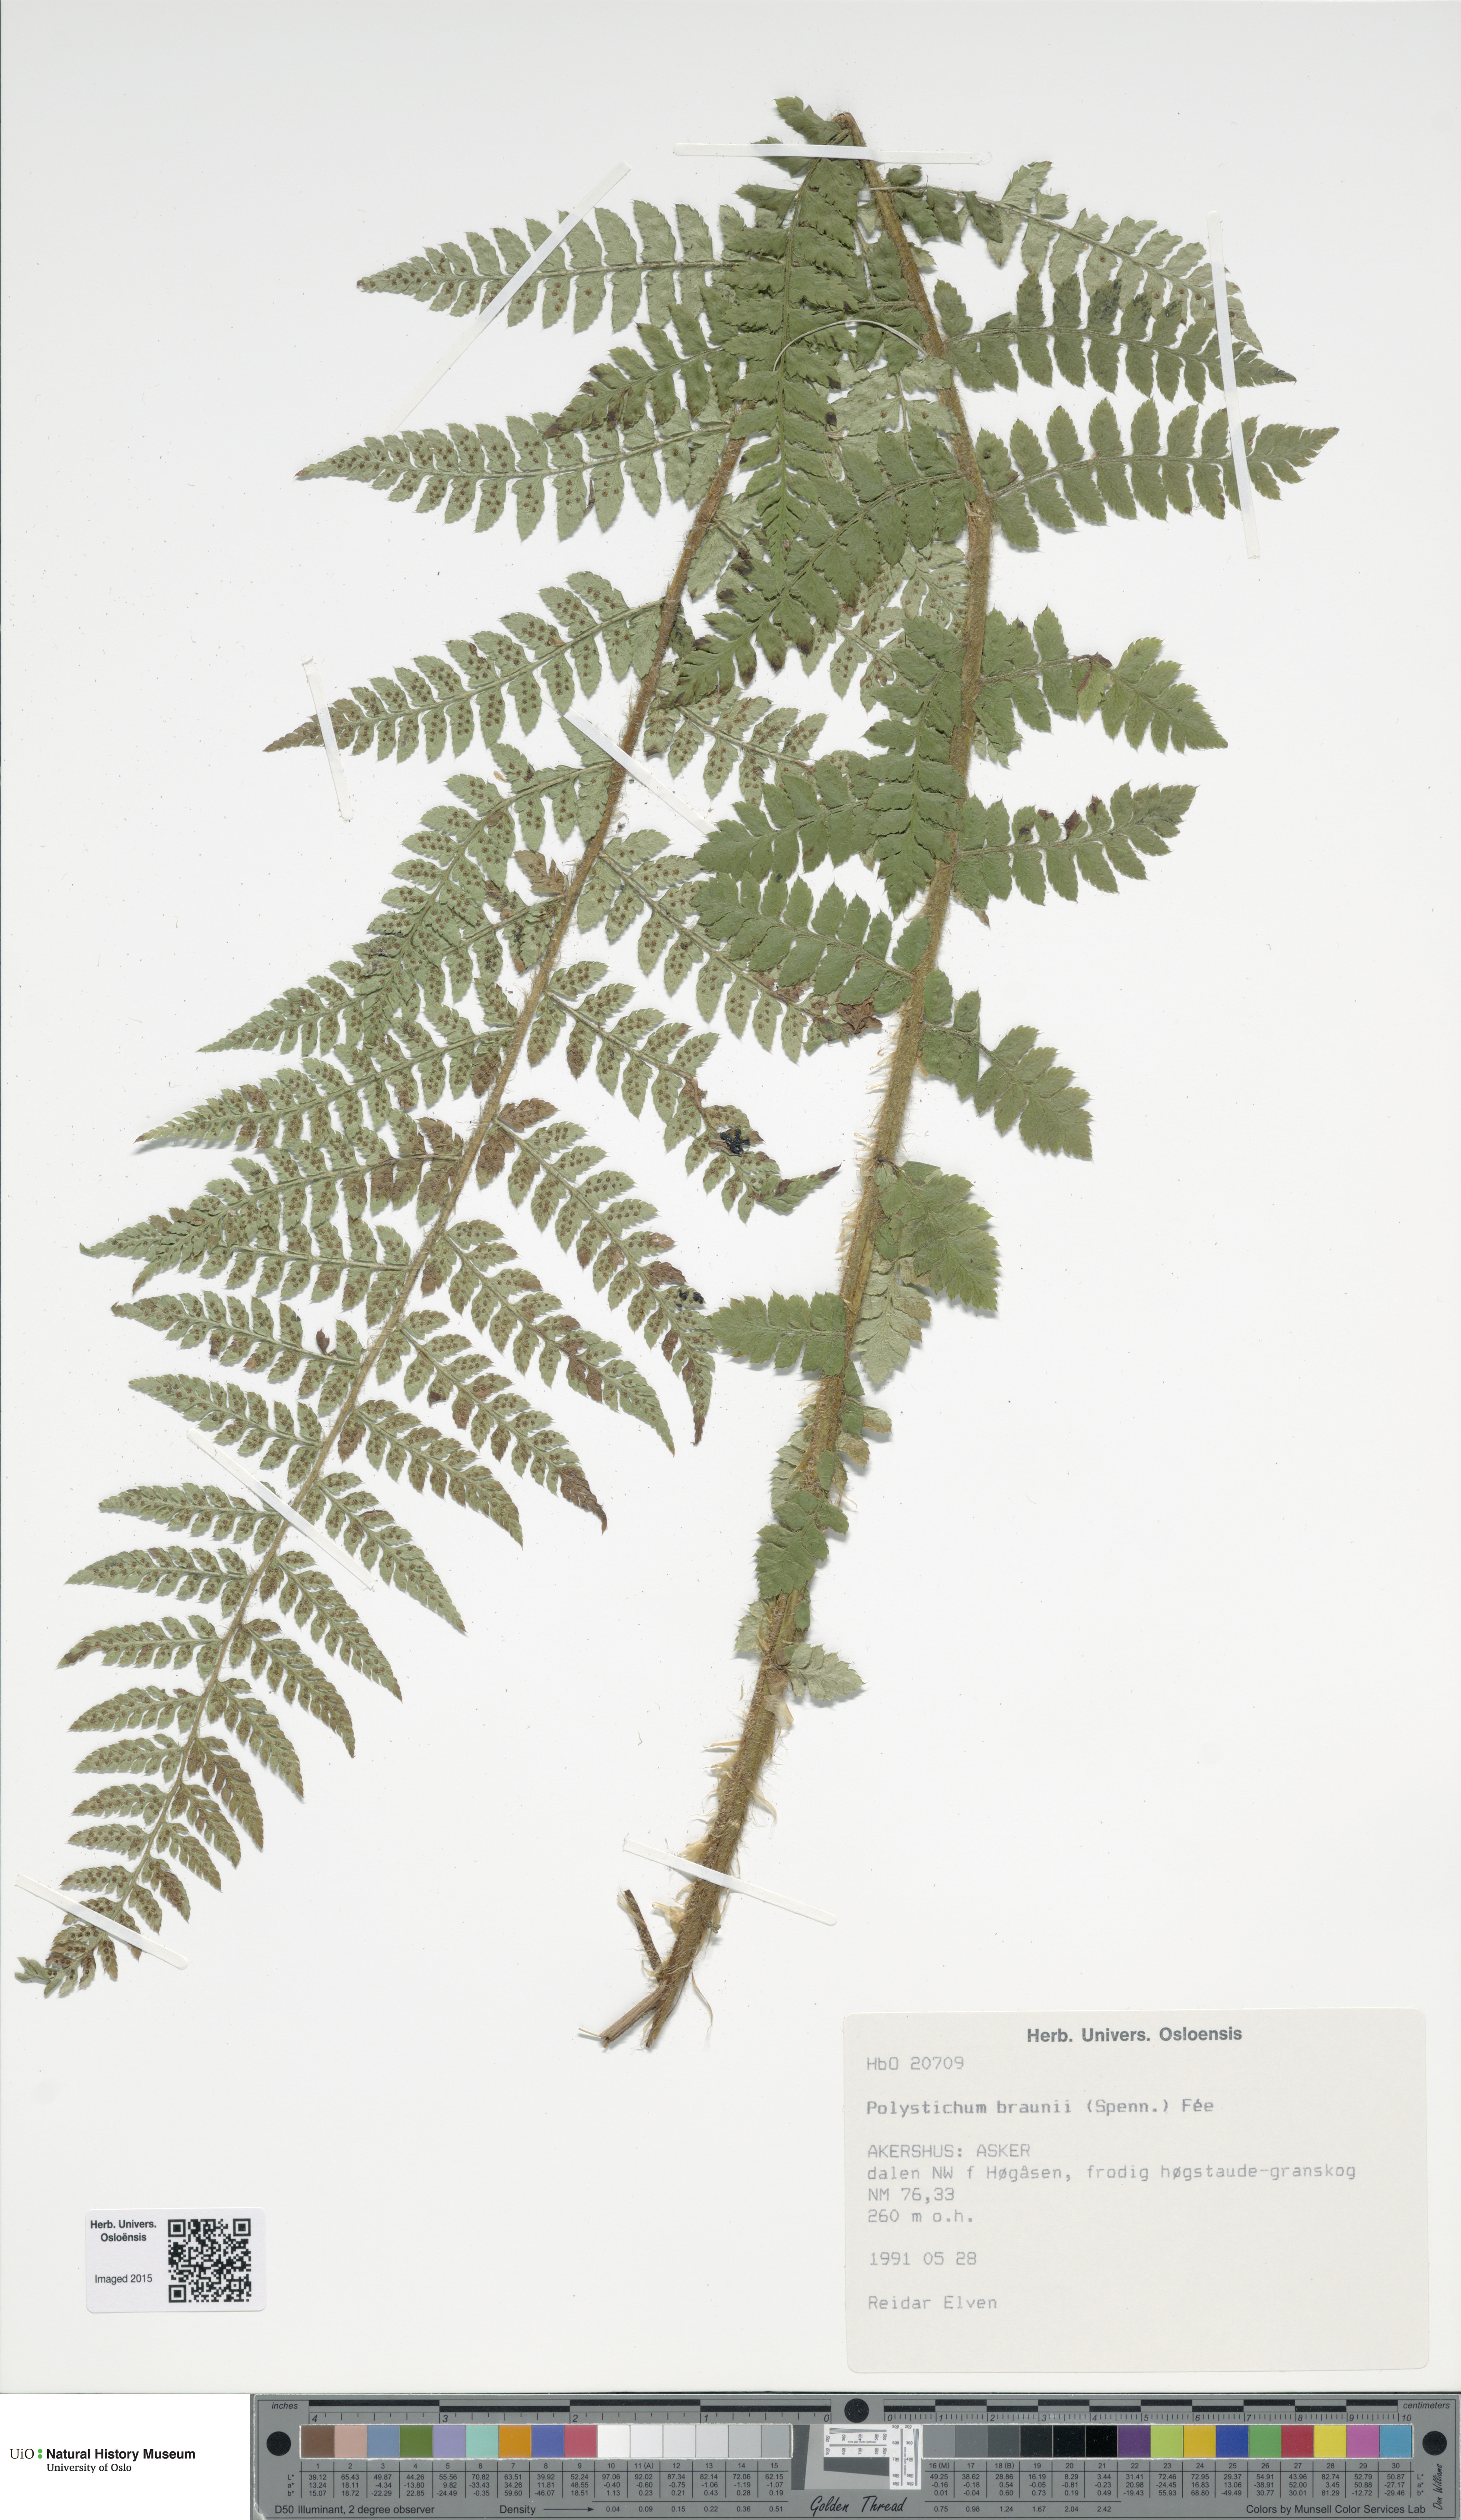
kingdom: Plantae
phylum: Tracheophyta
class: Polypodiopsida
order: Polypodiales
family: Dryopteridaceae
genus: Polystichum
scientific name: Polystichum braunii
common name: Braun's holly fern
